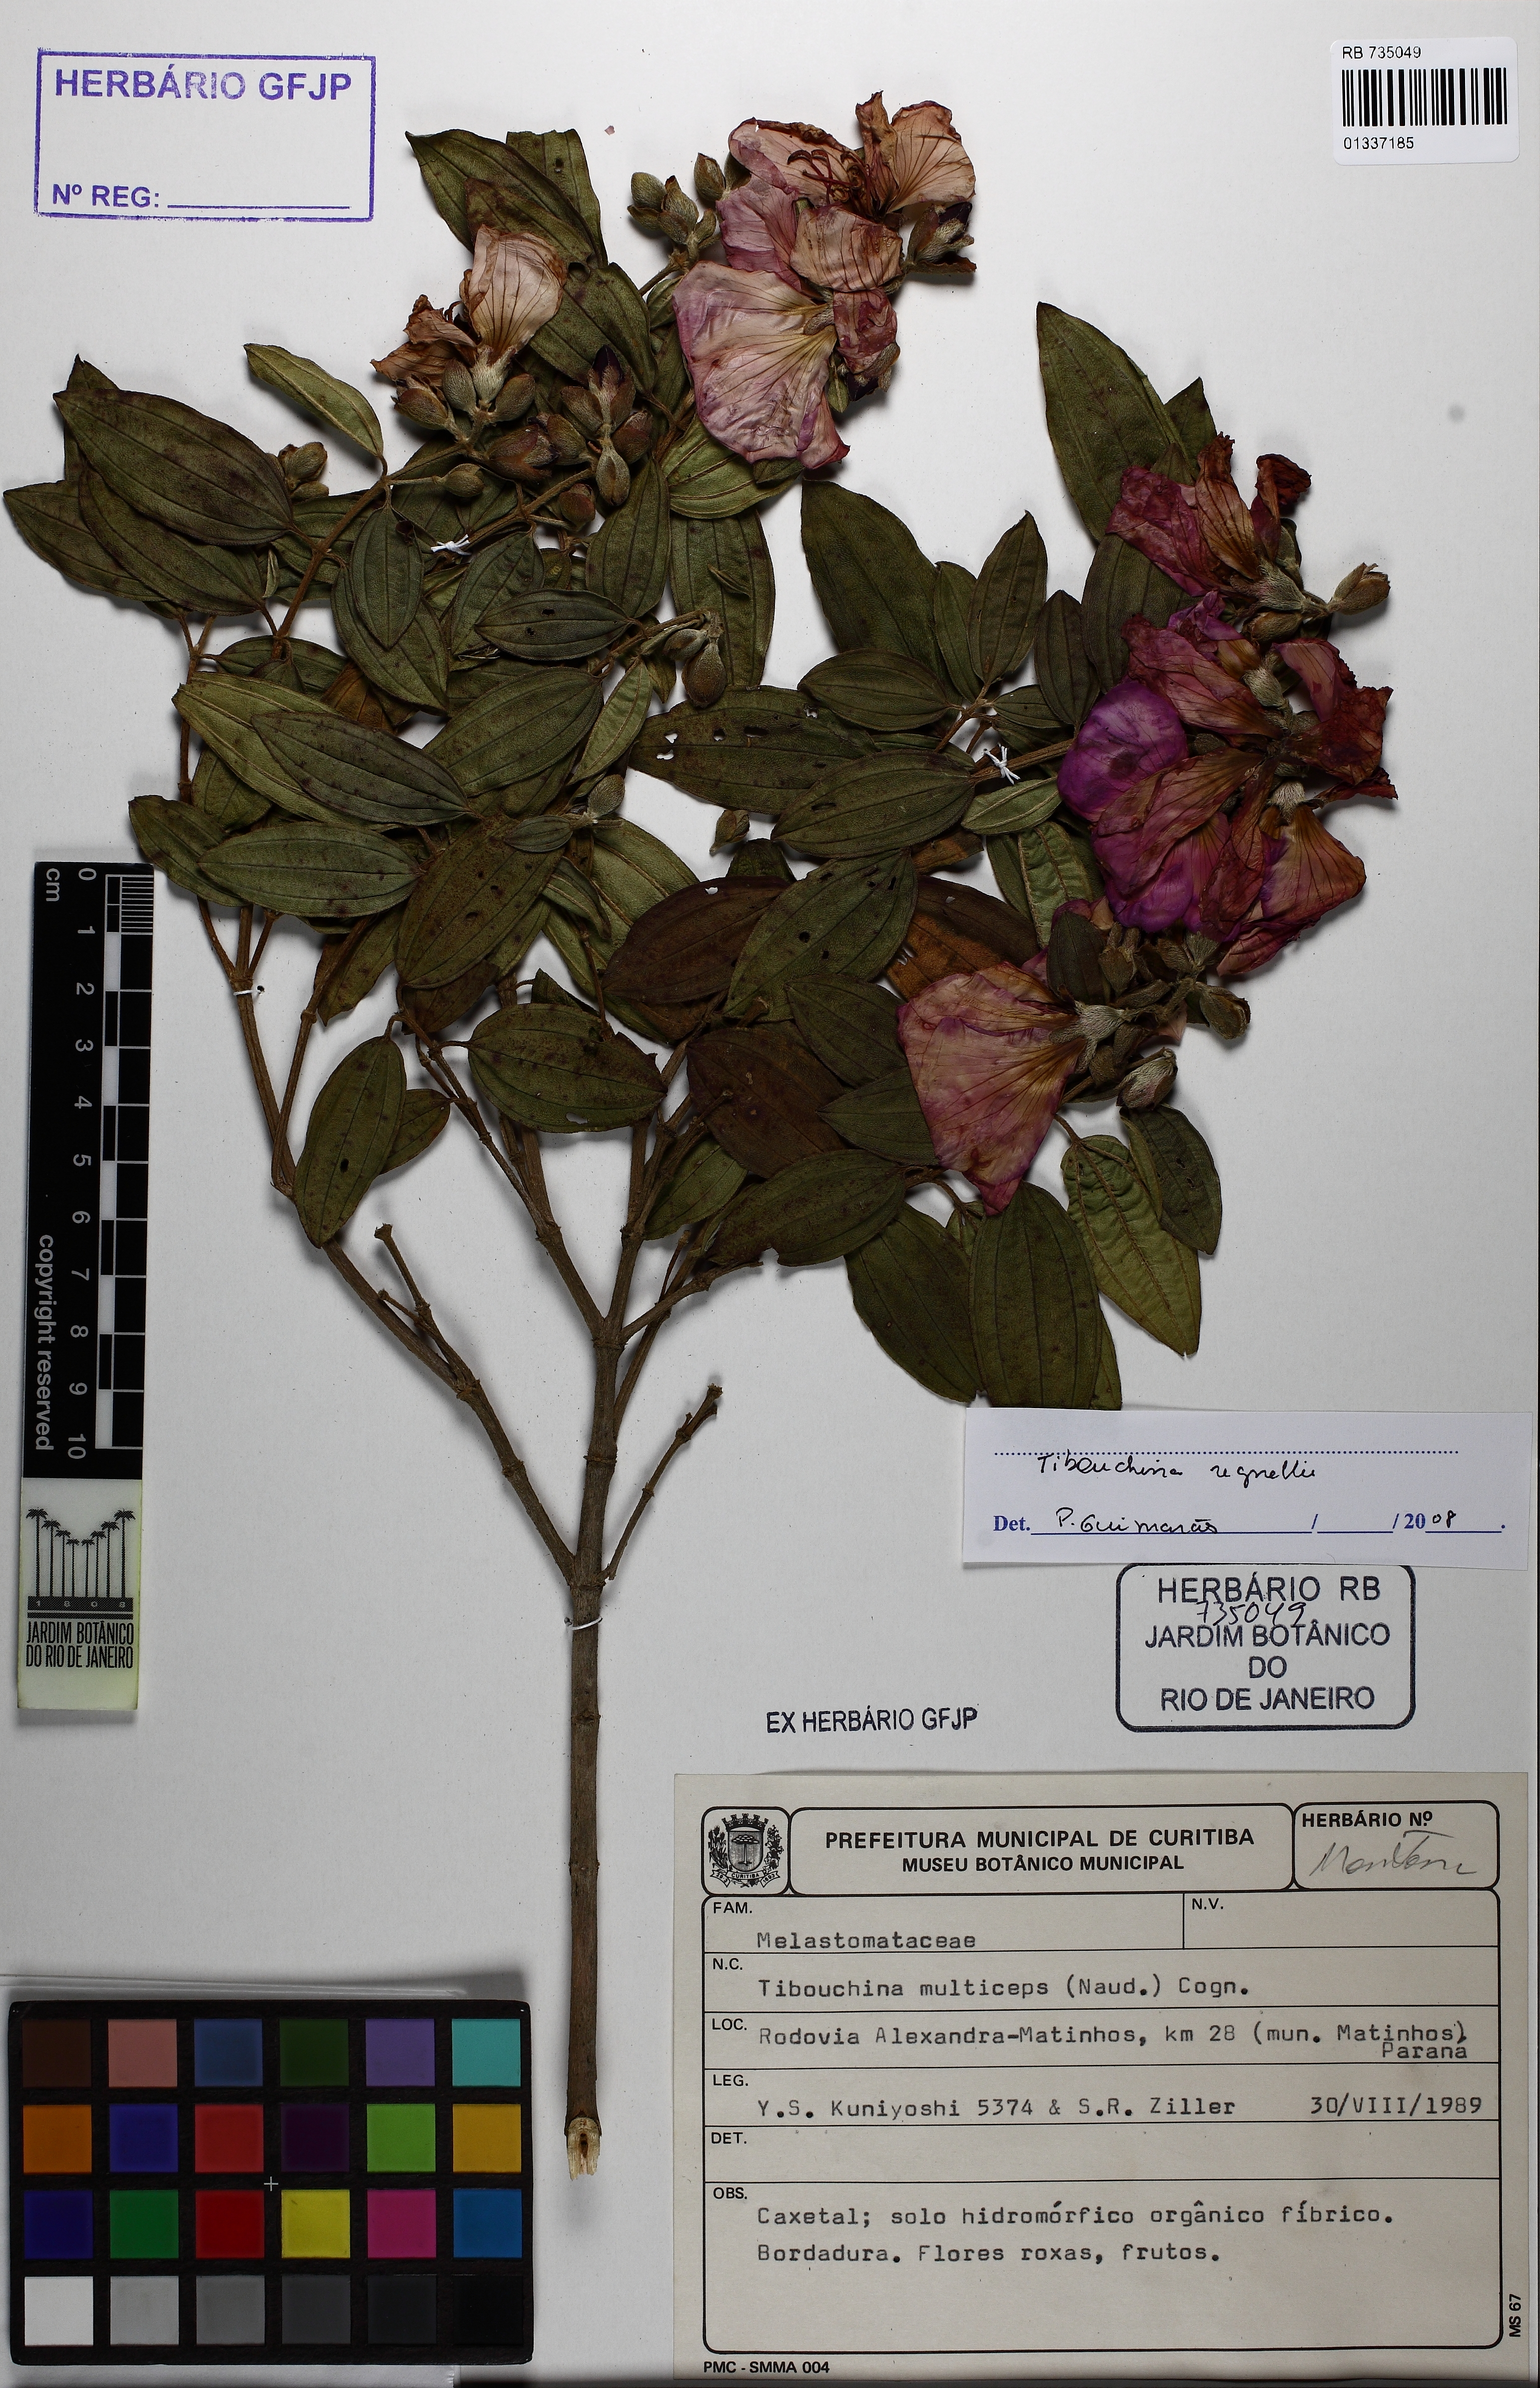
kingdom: Plantae
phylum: Tracheophyta
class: Magnoliopsida
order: Myrtales
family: Melastomataceae
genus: Pleroma
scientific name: Pleroma andersregnellii
